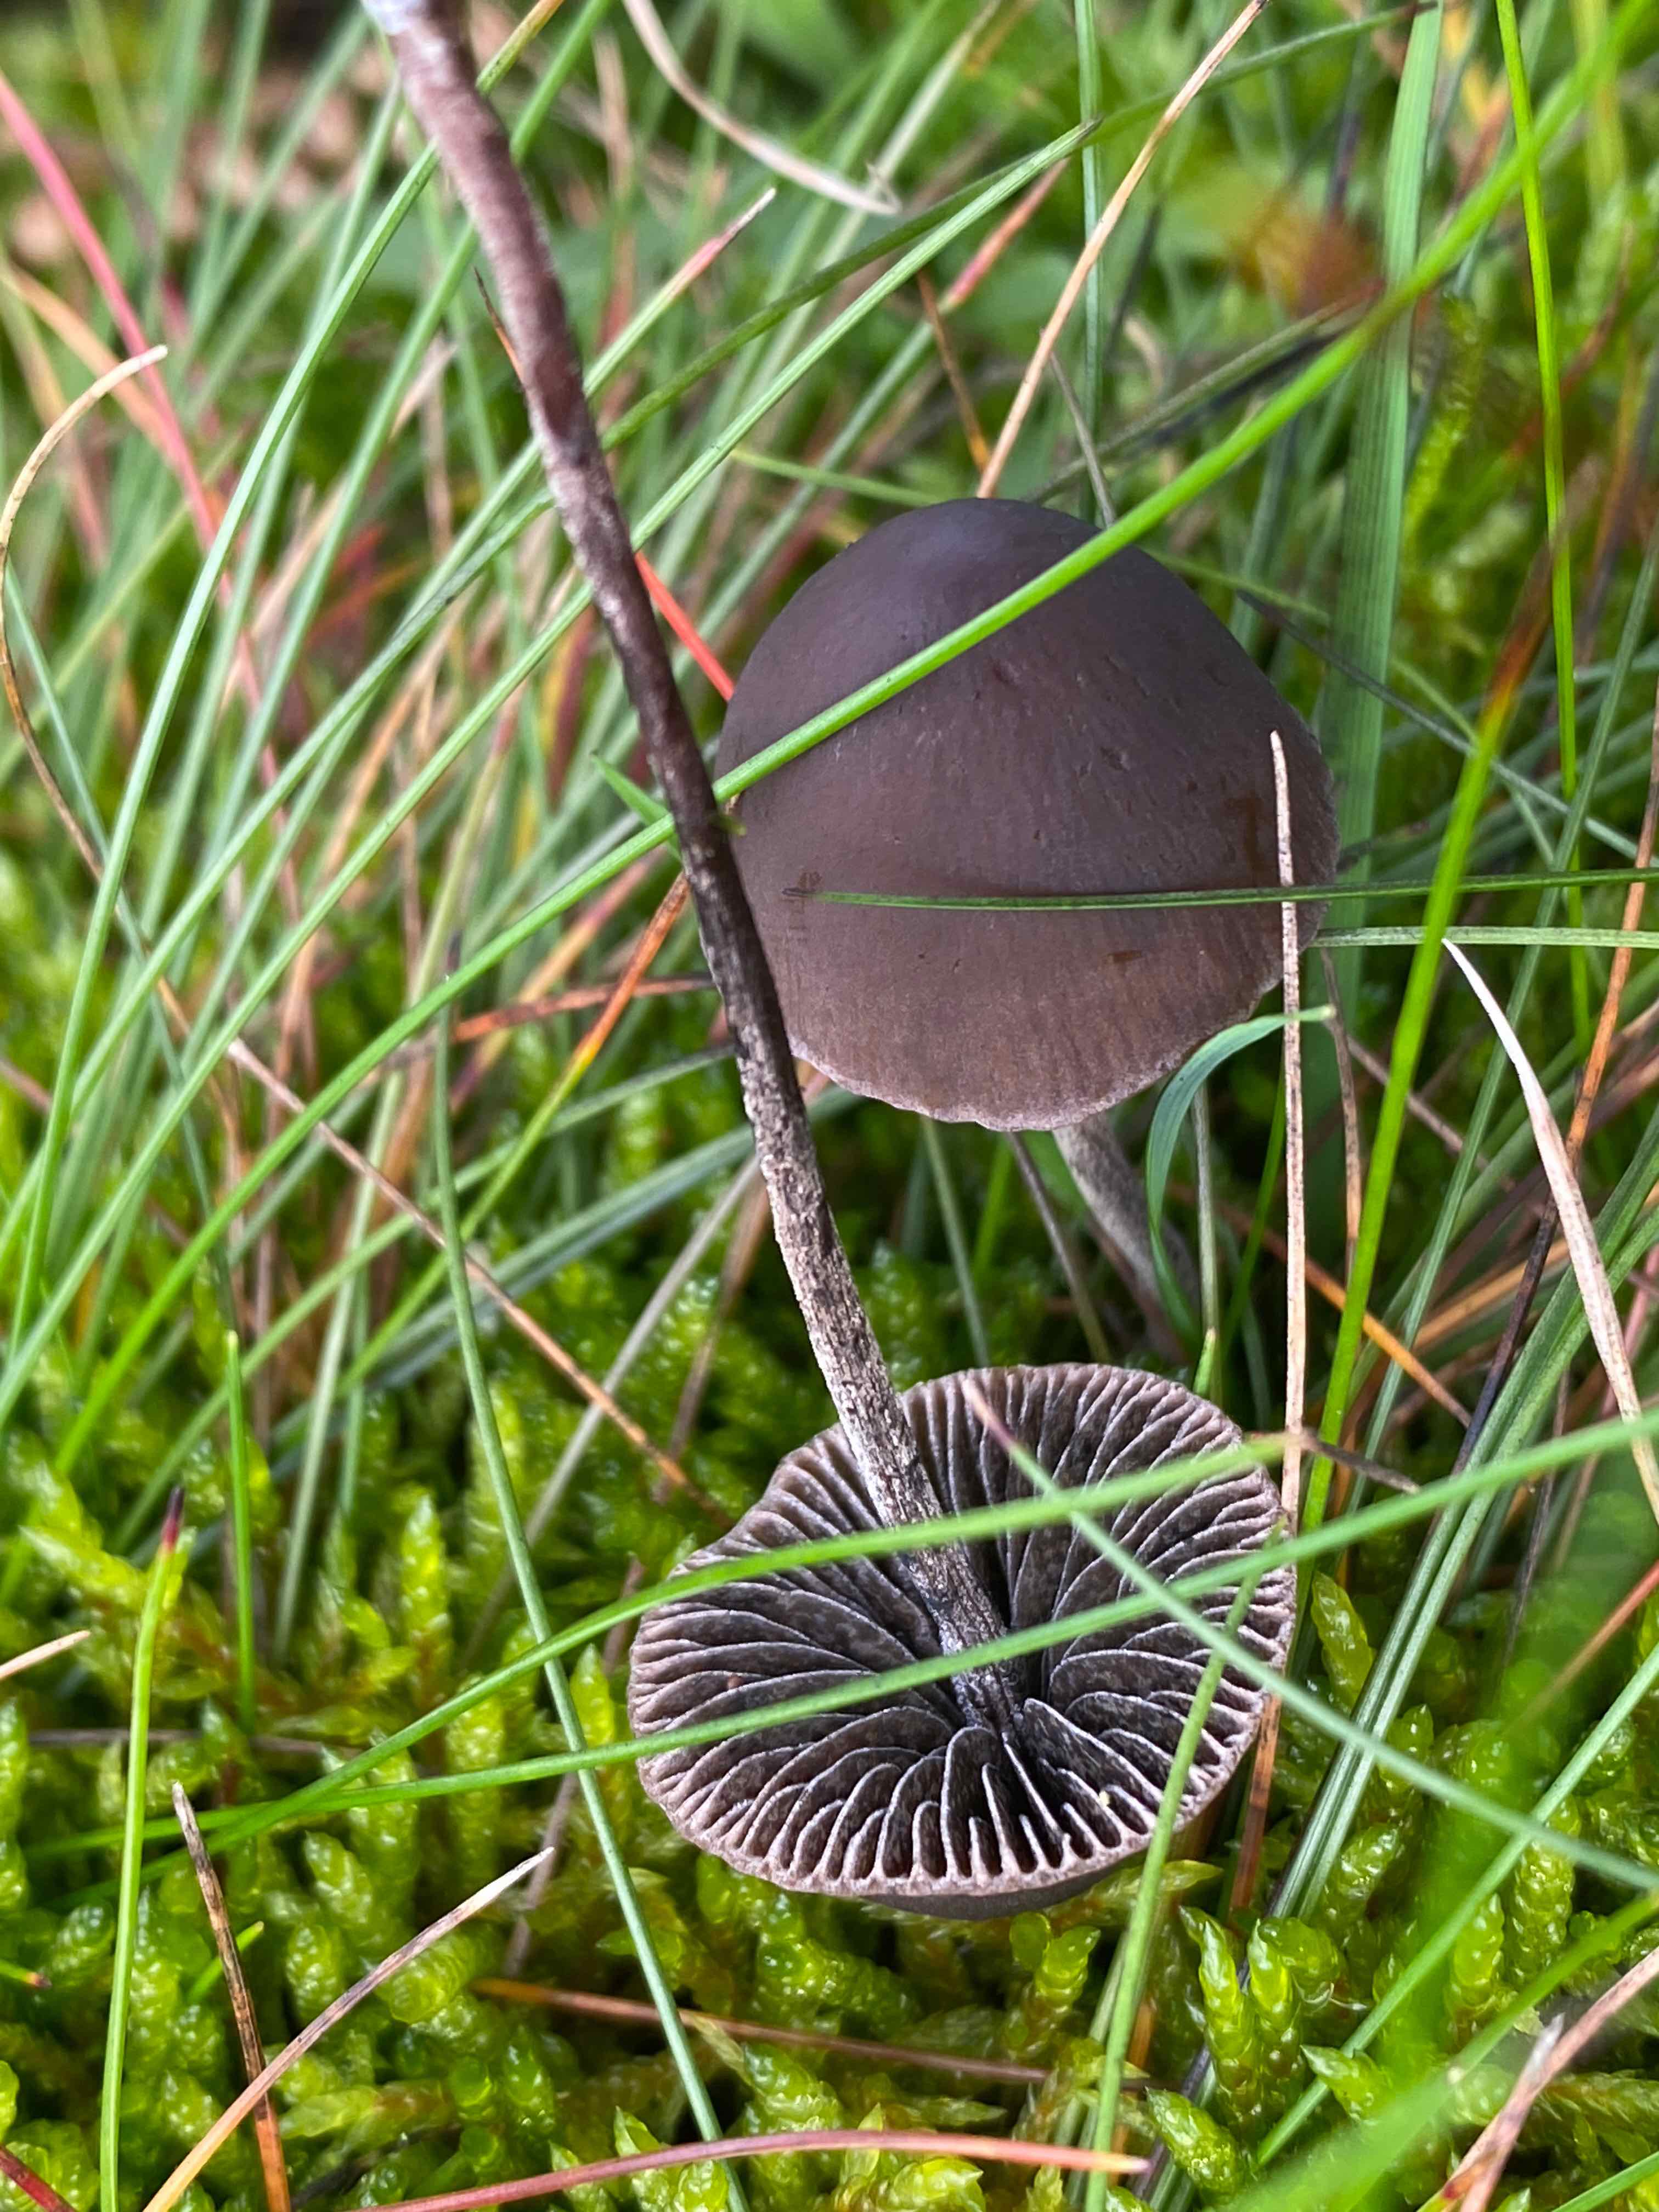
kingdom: Fungi
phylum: Basidiomycota
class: Agaricomycetes
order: Agaricales
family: Bolbitiaceae
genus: Panaeolus
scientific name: Panaeolus acuminatus
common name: høj glanshat
